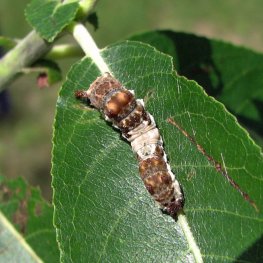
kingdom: Animalia
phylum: Arthropoda
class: Insecta
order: Lepidoptera
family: Nymphalidae
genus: Limenitis
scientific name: Limenitis archippus
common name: Viceroy
